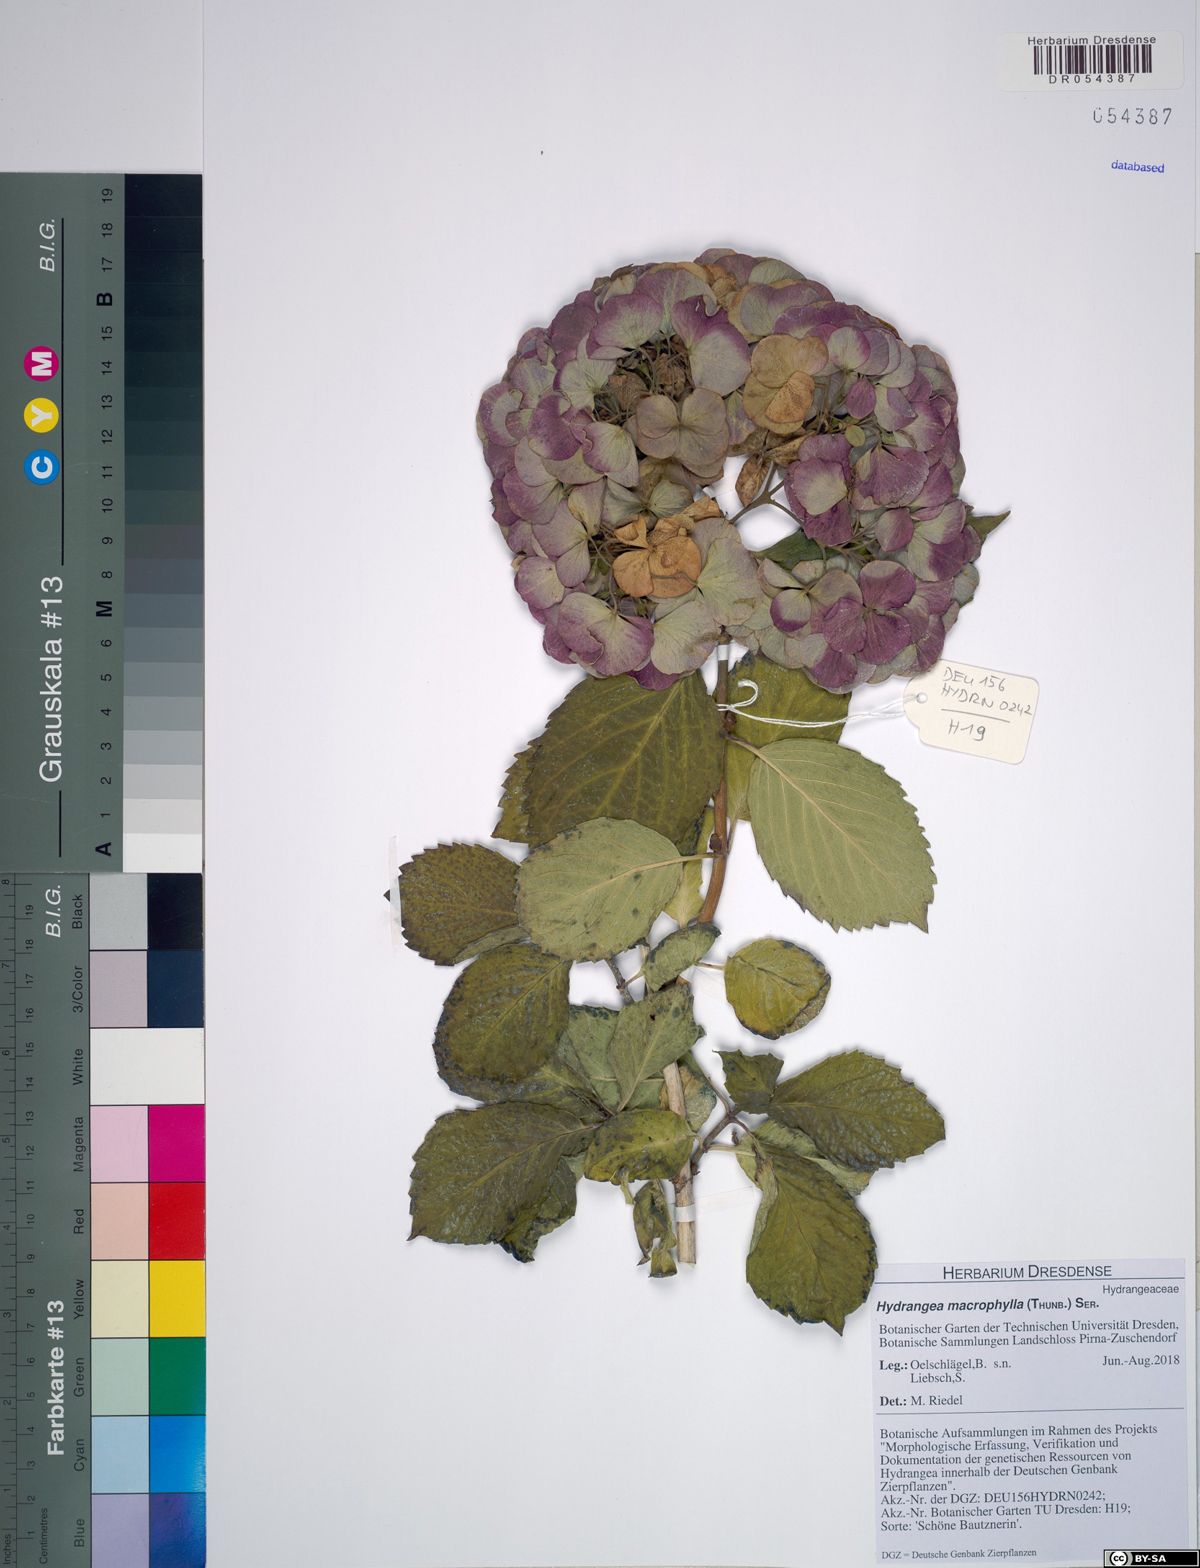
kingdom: Plantae
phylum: Tracheophyta
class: Magnoliopsida
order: Cornales
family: Hydrangeaceae
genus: Hydrangea
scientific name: Hydrangea macrophylla
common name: Hydrangea
